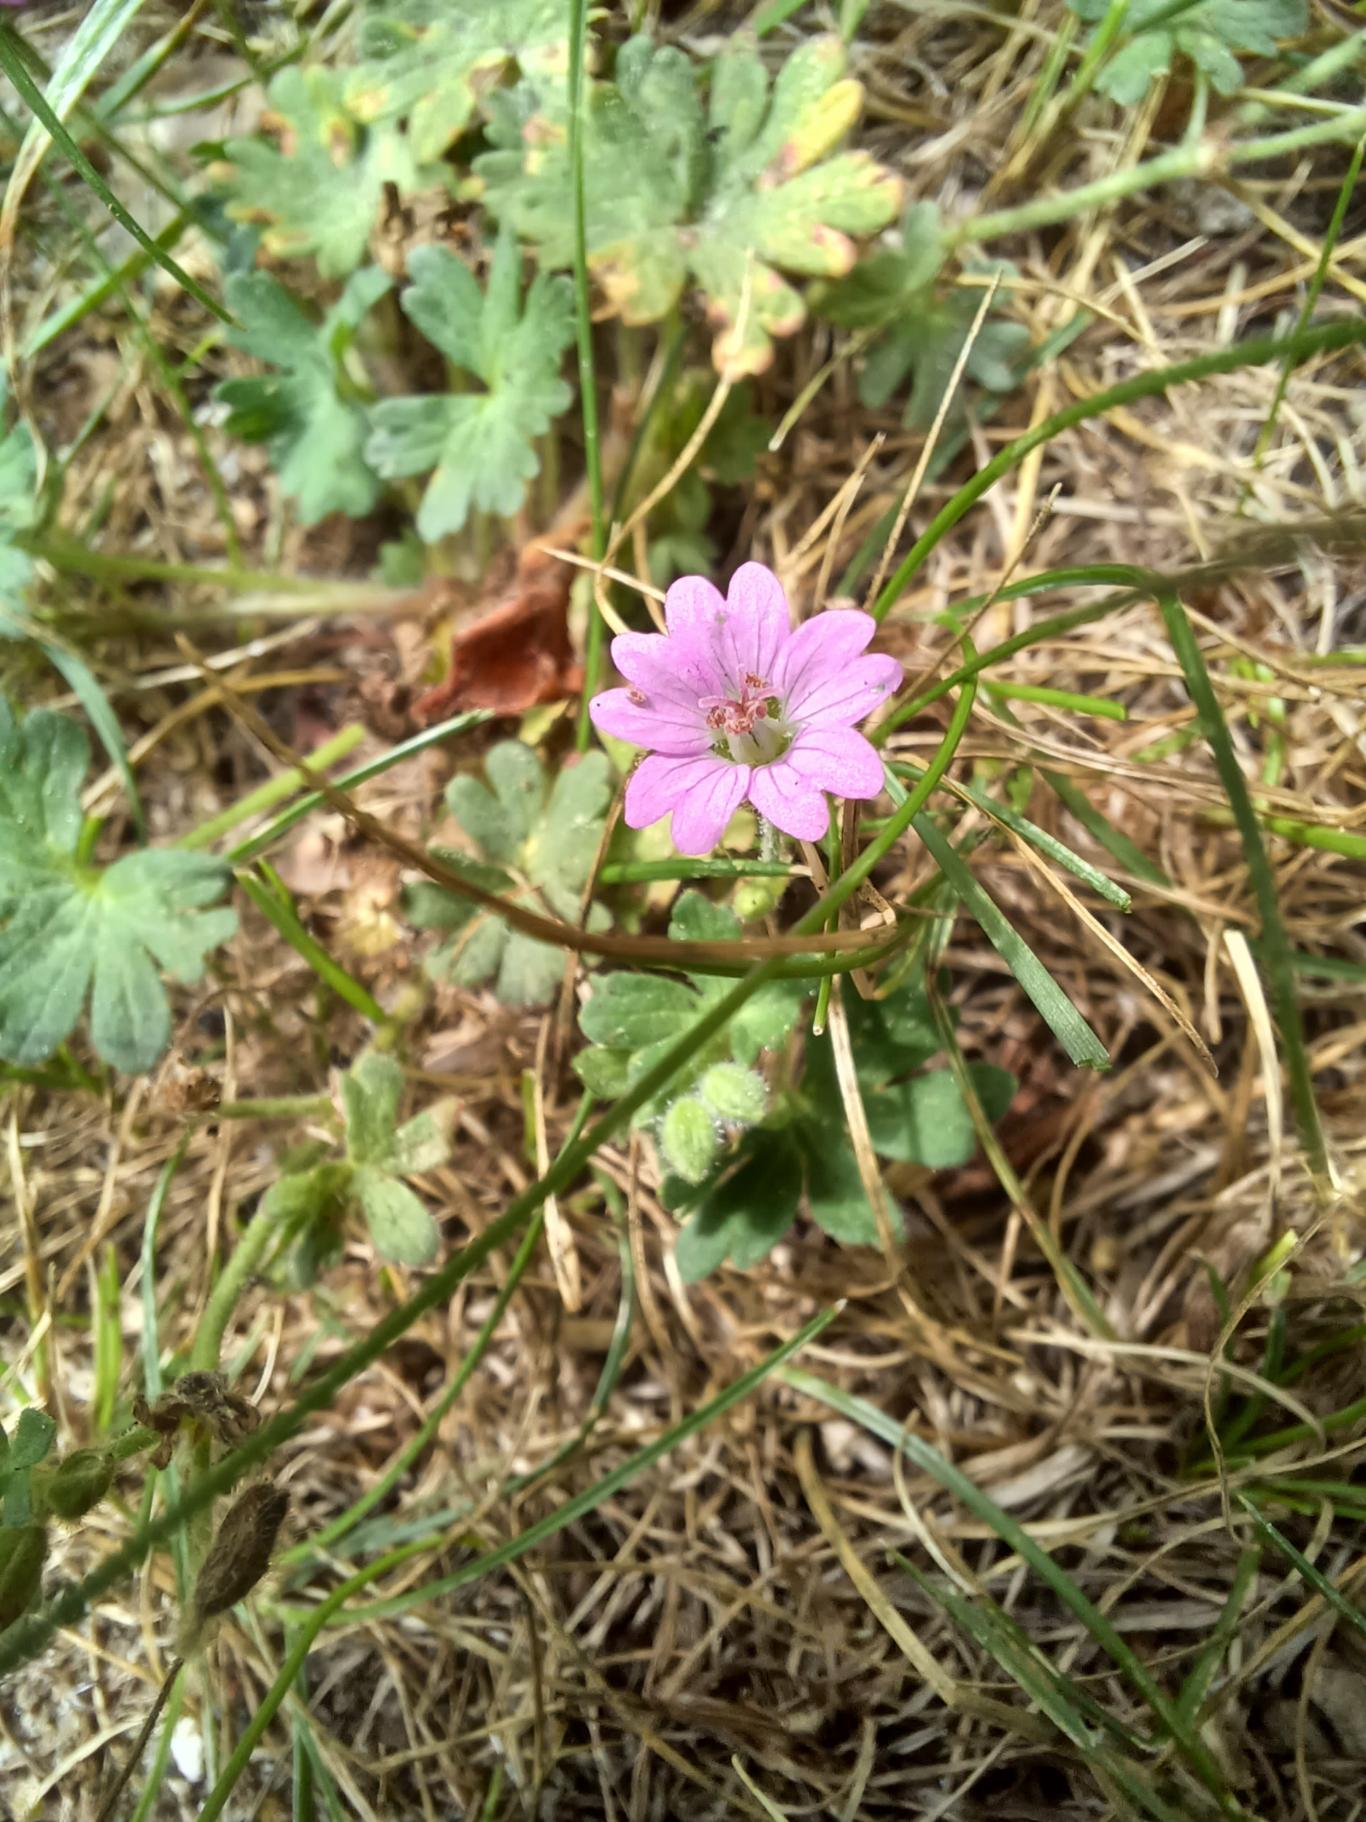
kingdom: Plantae
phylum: Tracheophyta
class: Magnoliopsida
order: Geraniales
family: Geraniaceae
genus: Geranium
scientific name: Geranium molle
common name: Blød storkenæb
